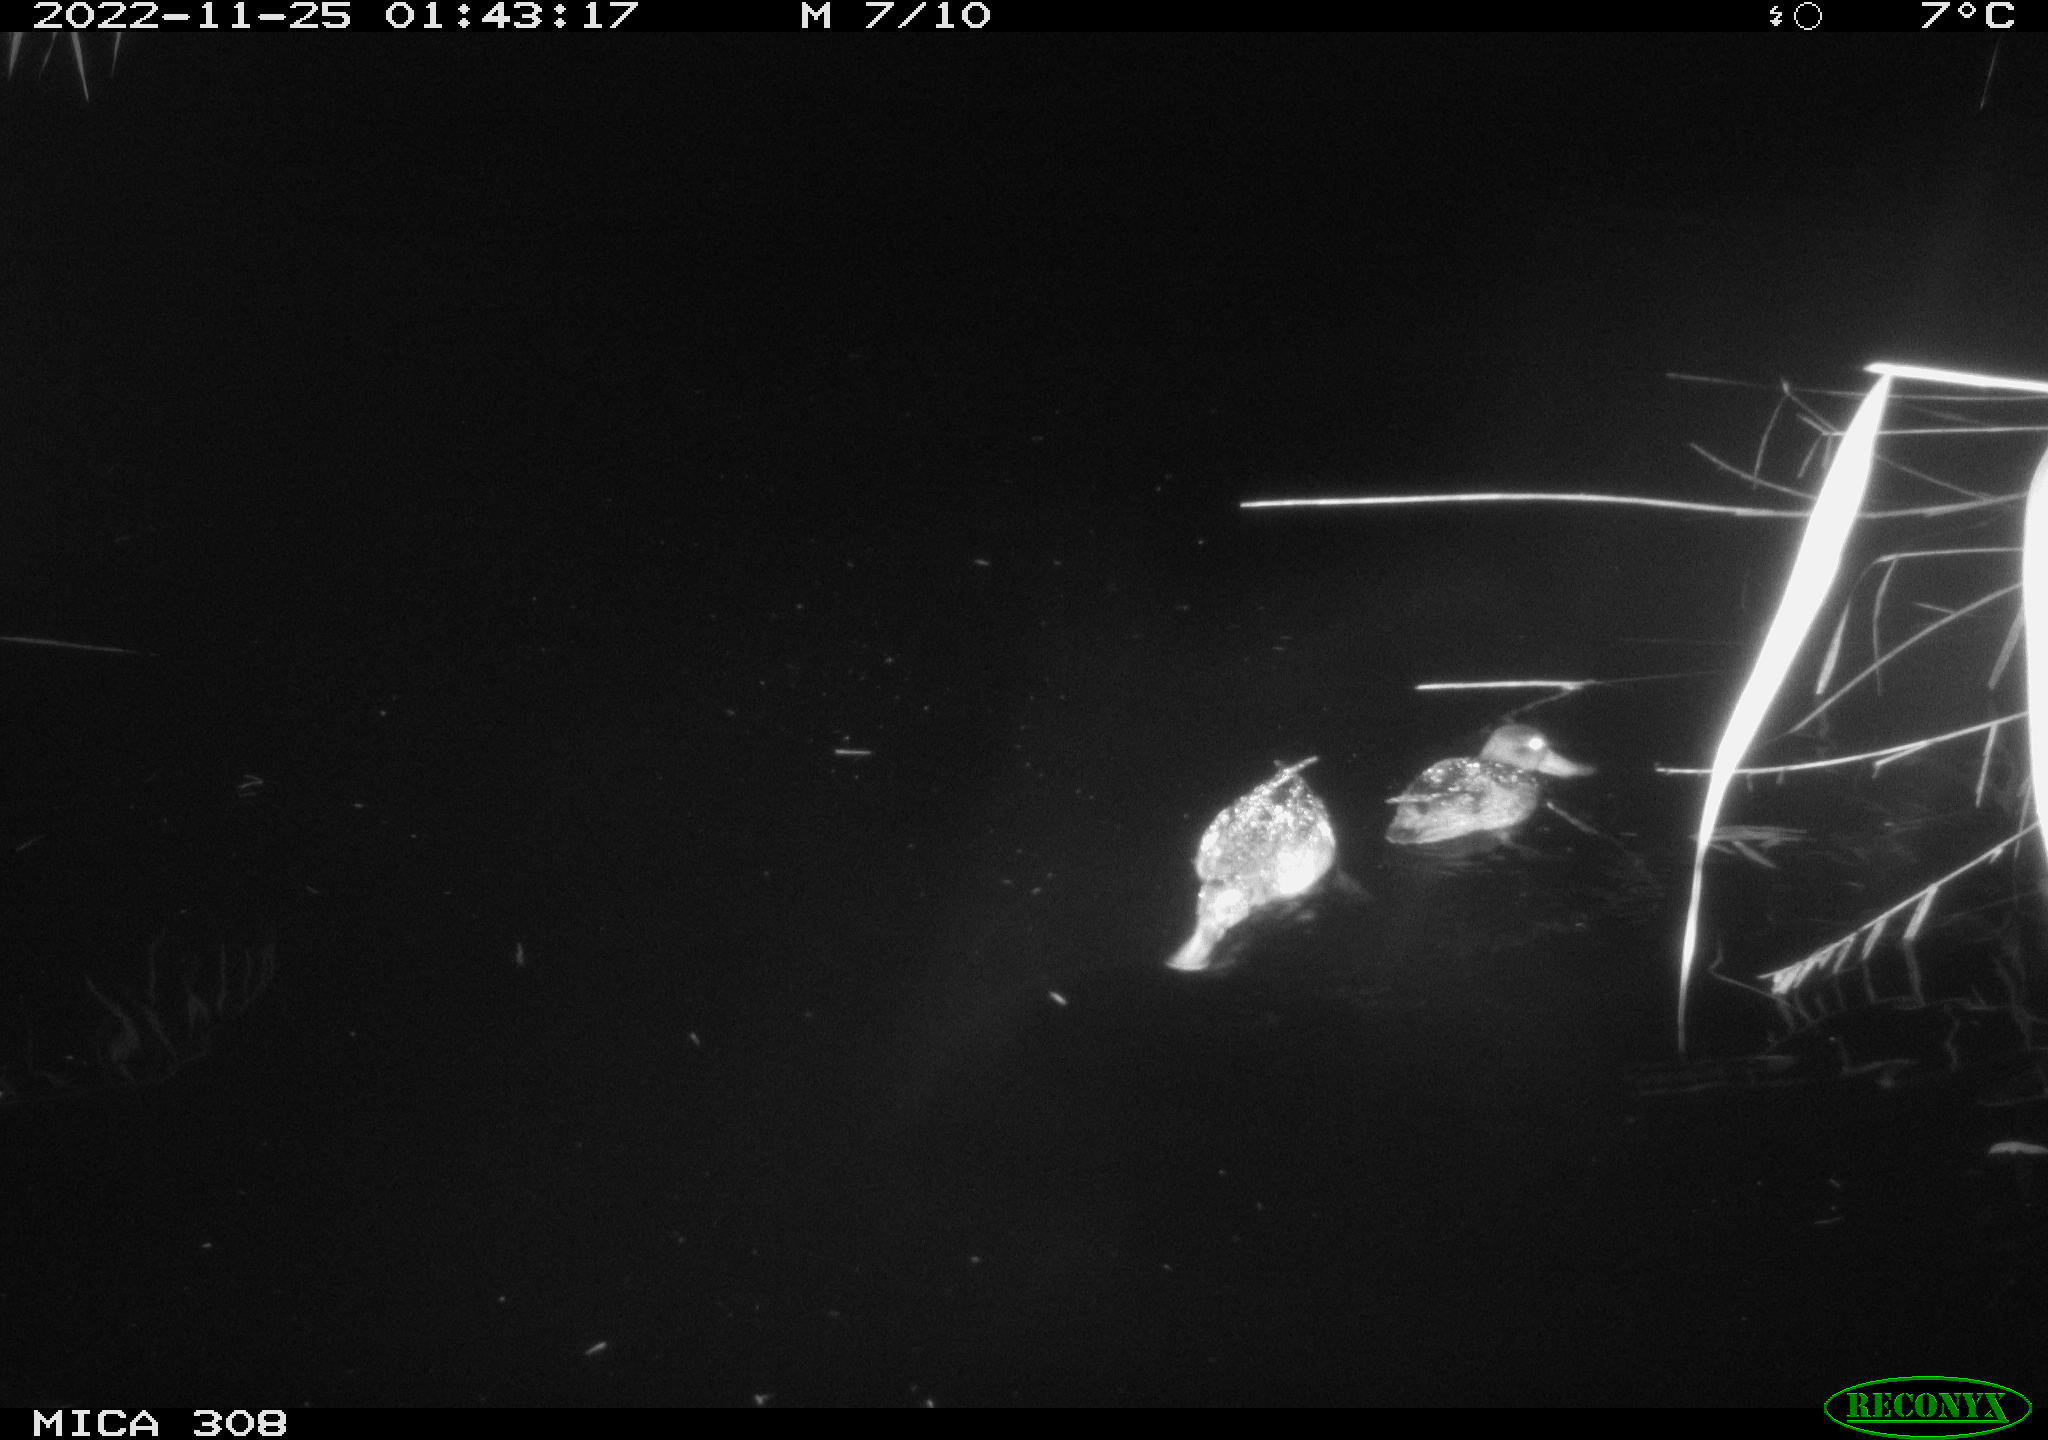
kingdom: Animalia
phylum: Chordata
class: Aves
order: Anseriformes
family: Anatidae
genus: Anas
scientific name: Anas
